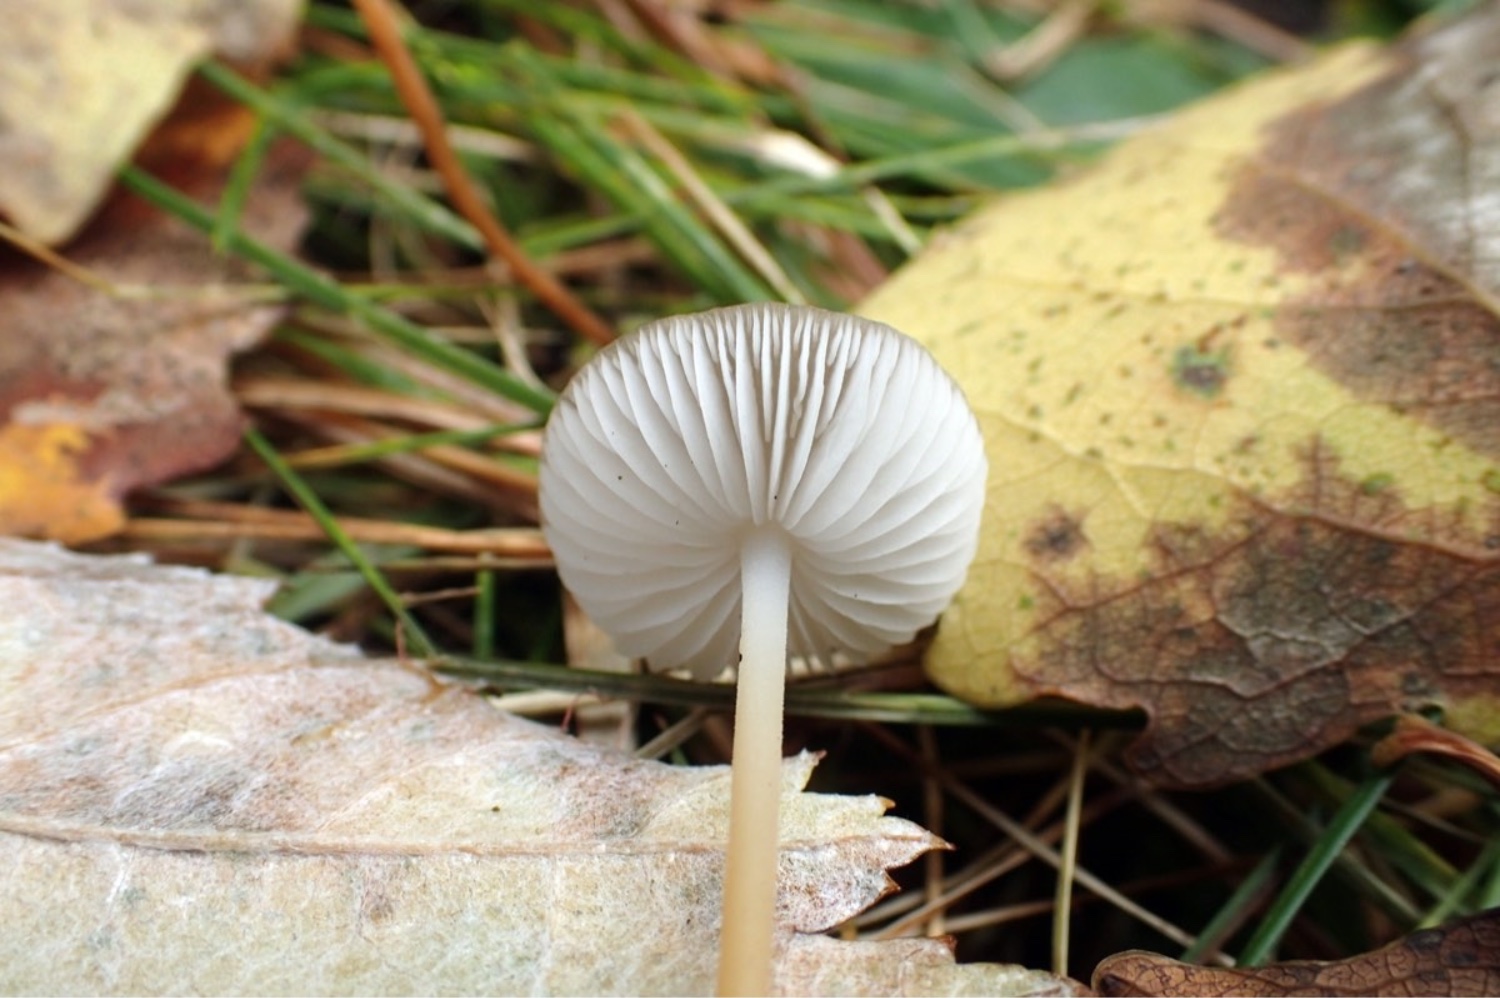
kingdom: Fungi
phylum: Basidiomycota
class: Agaricomycetes
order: Agaricales
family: Physalacriaceae
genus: Strobilurus
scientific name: Strobilurus
